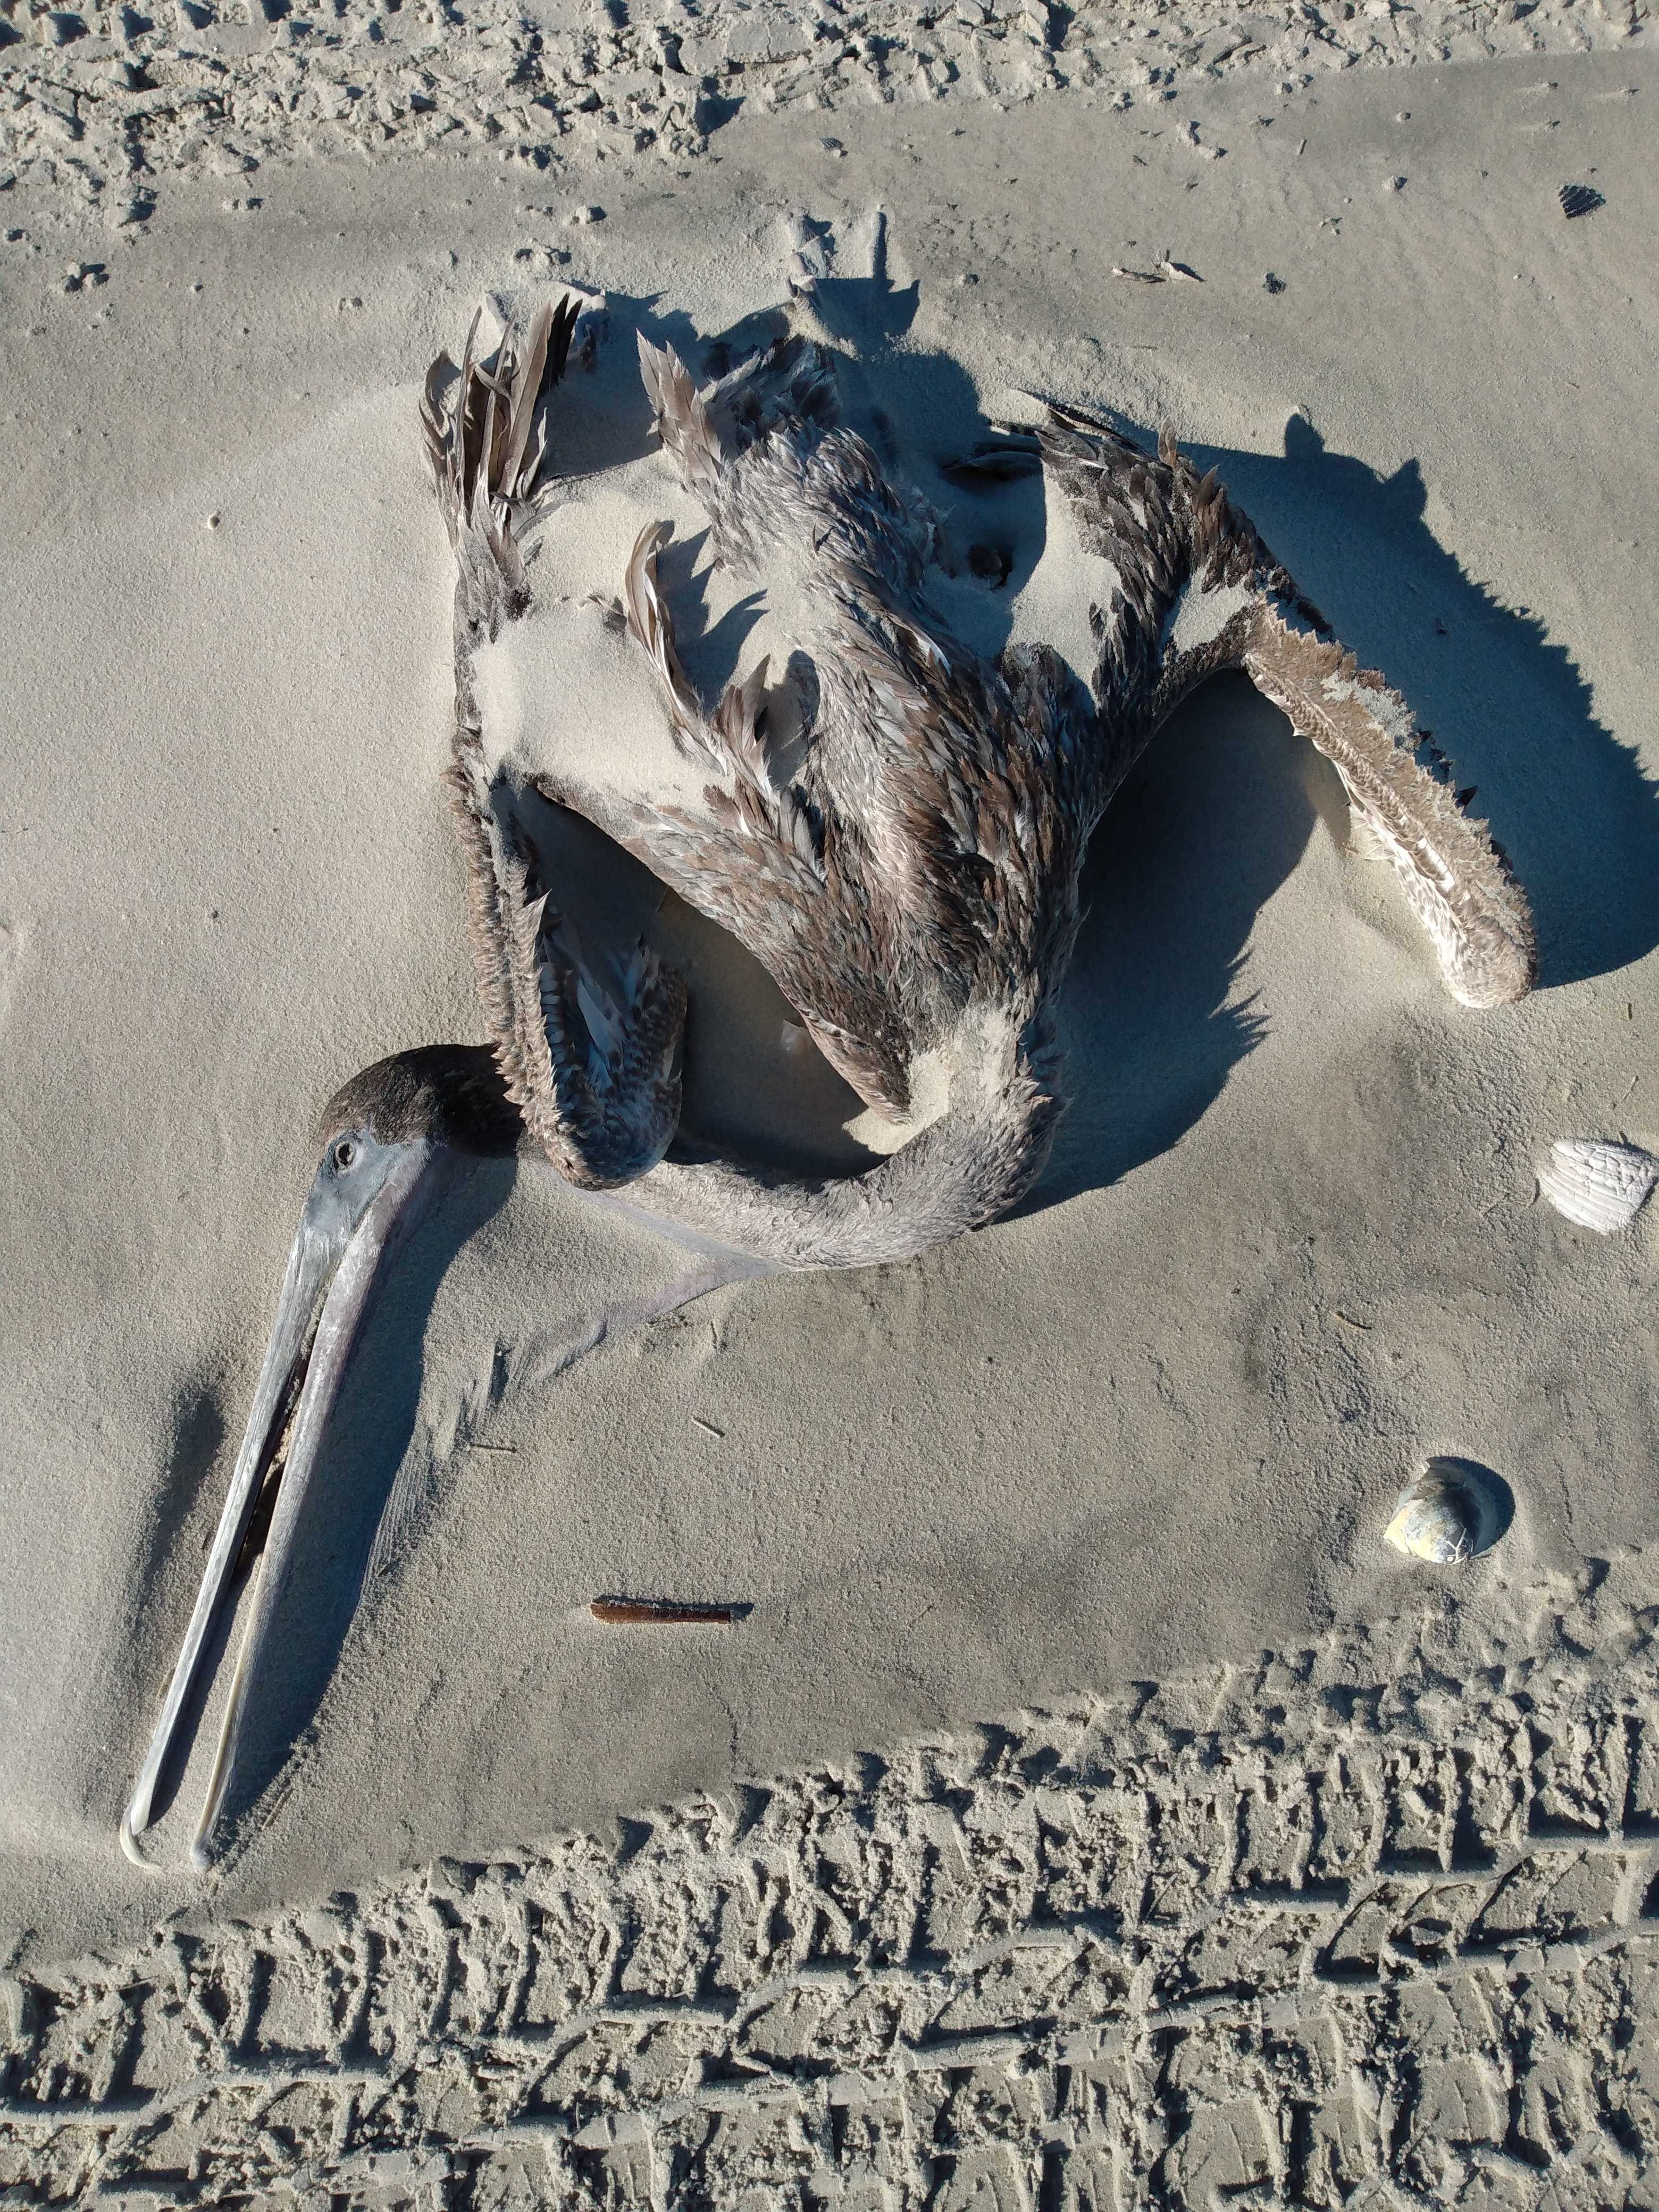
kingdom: Animalia
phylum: Chordata
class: Aves
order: Pelecaniformes
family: Pelecanidae
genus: Pelecanus
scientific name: Pelecanus occidentalis
